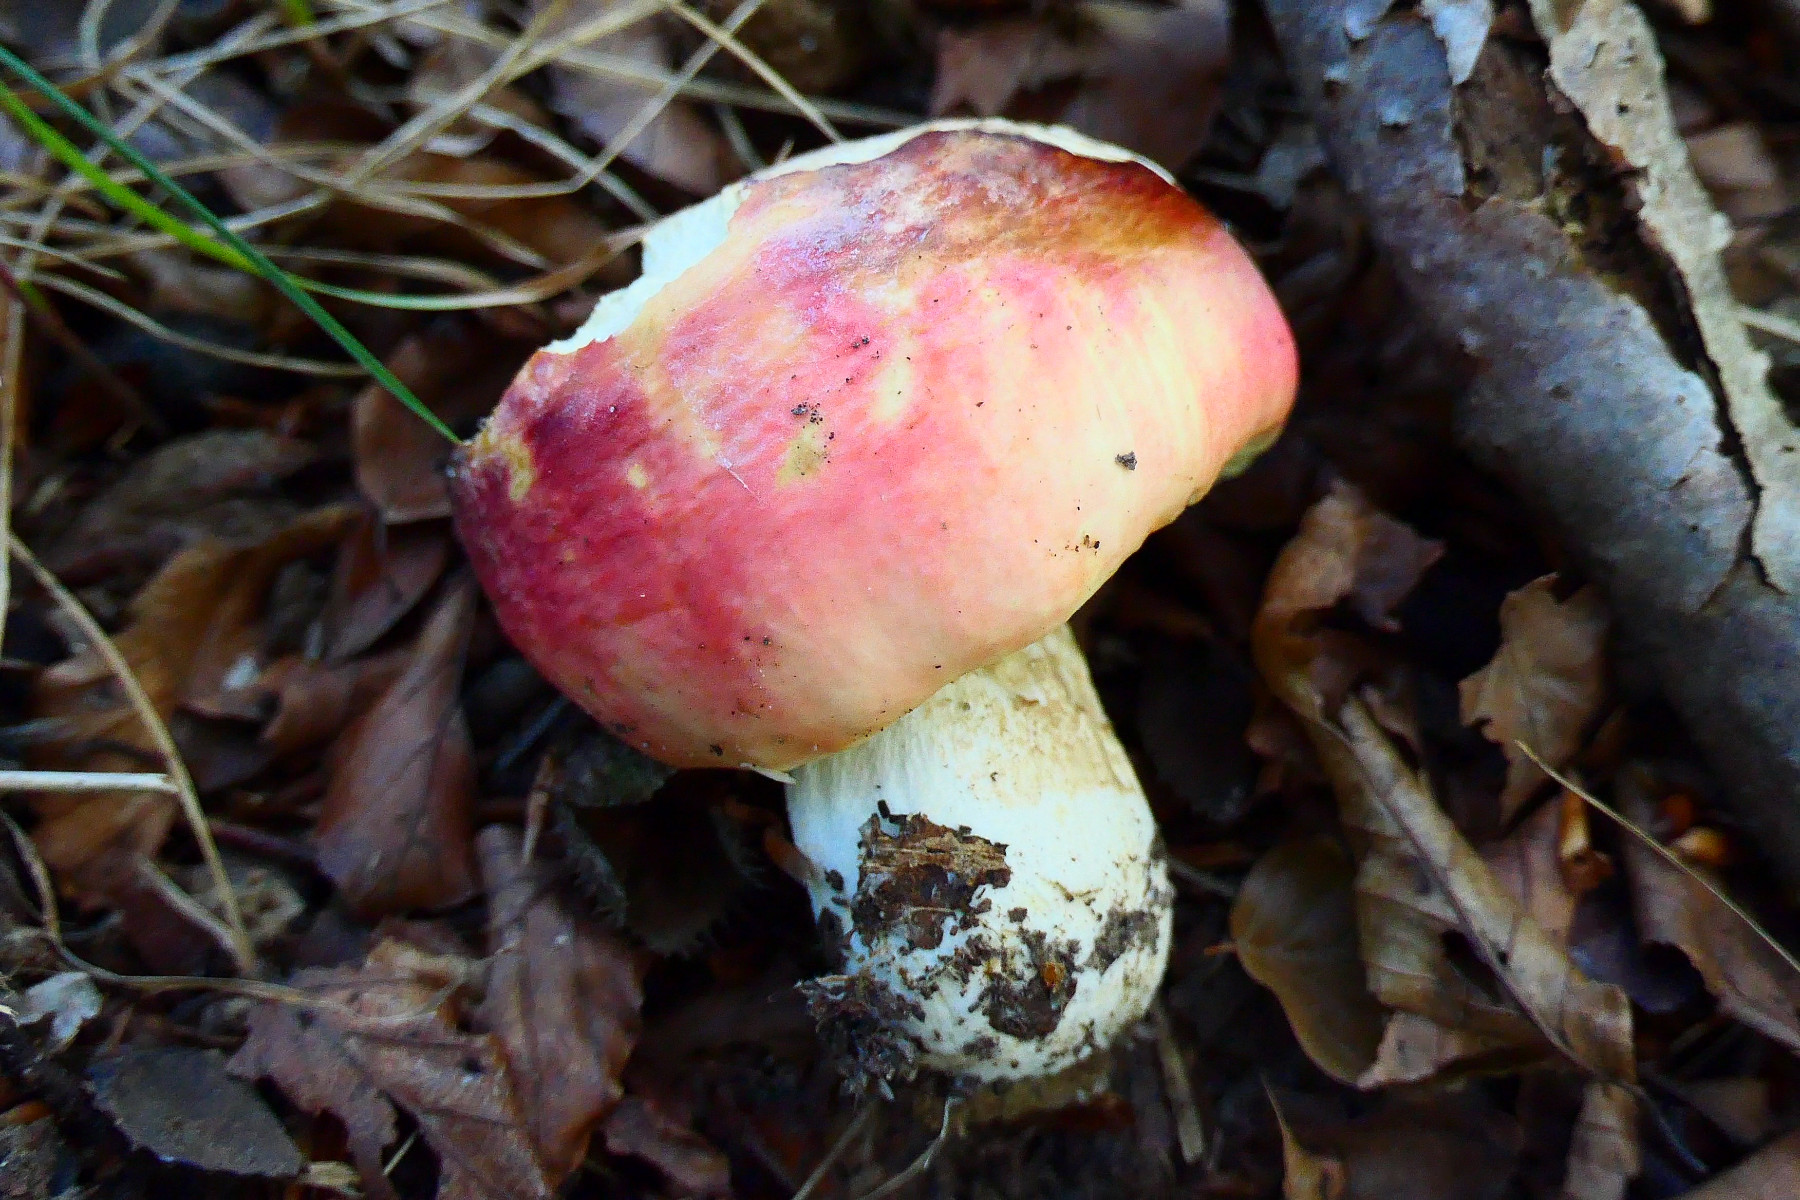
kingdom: Fungi
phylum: Basidiomycota
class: Agaricomycetes
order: Russulales
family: Russulaceae
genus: Russula
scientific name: Russula faginea
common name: bøge-skørhat
